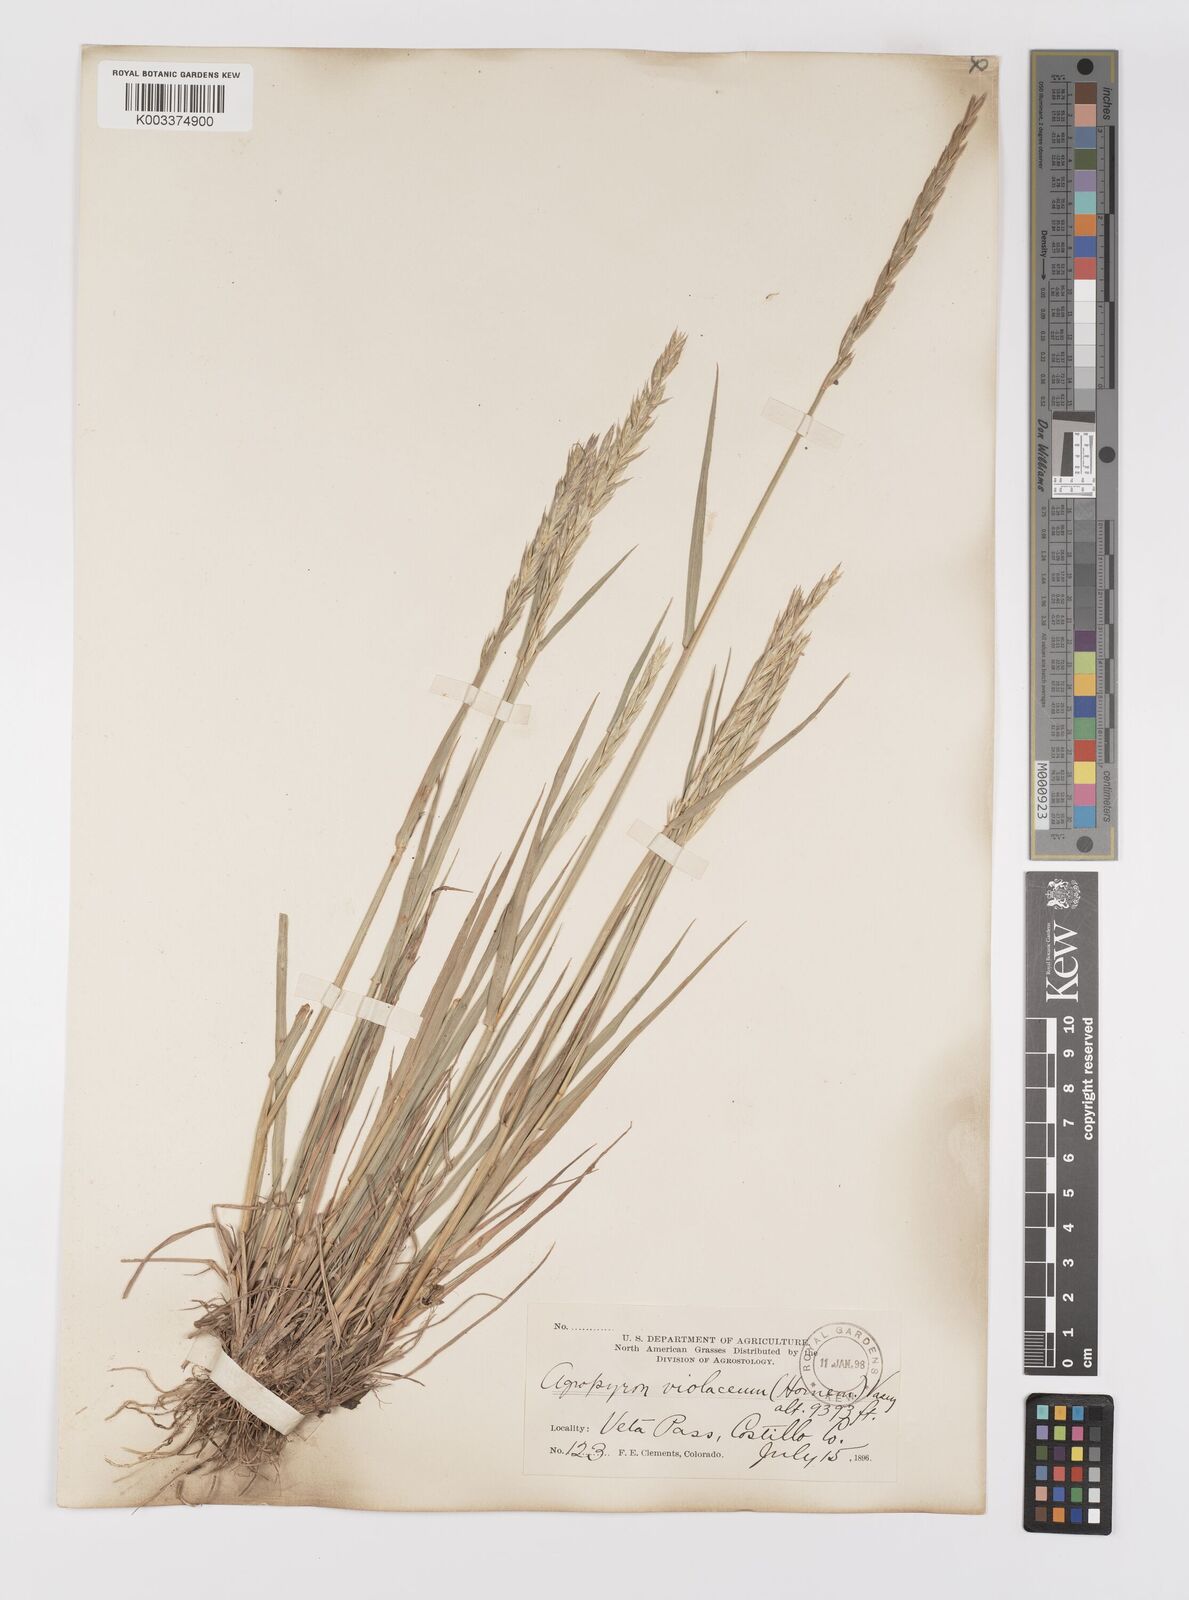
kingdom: Plantae
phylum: Tracheophyta
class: Liliopsida
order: Poales
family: Poaceae
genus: Elymus
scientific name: Elymus violaceus
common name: Arctic wheatgrass
